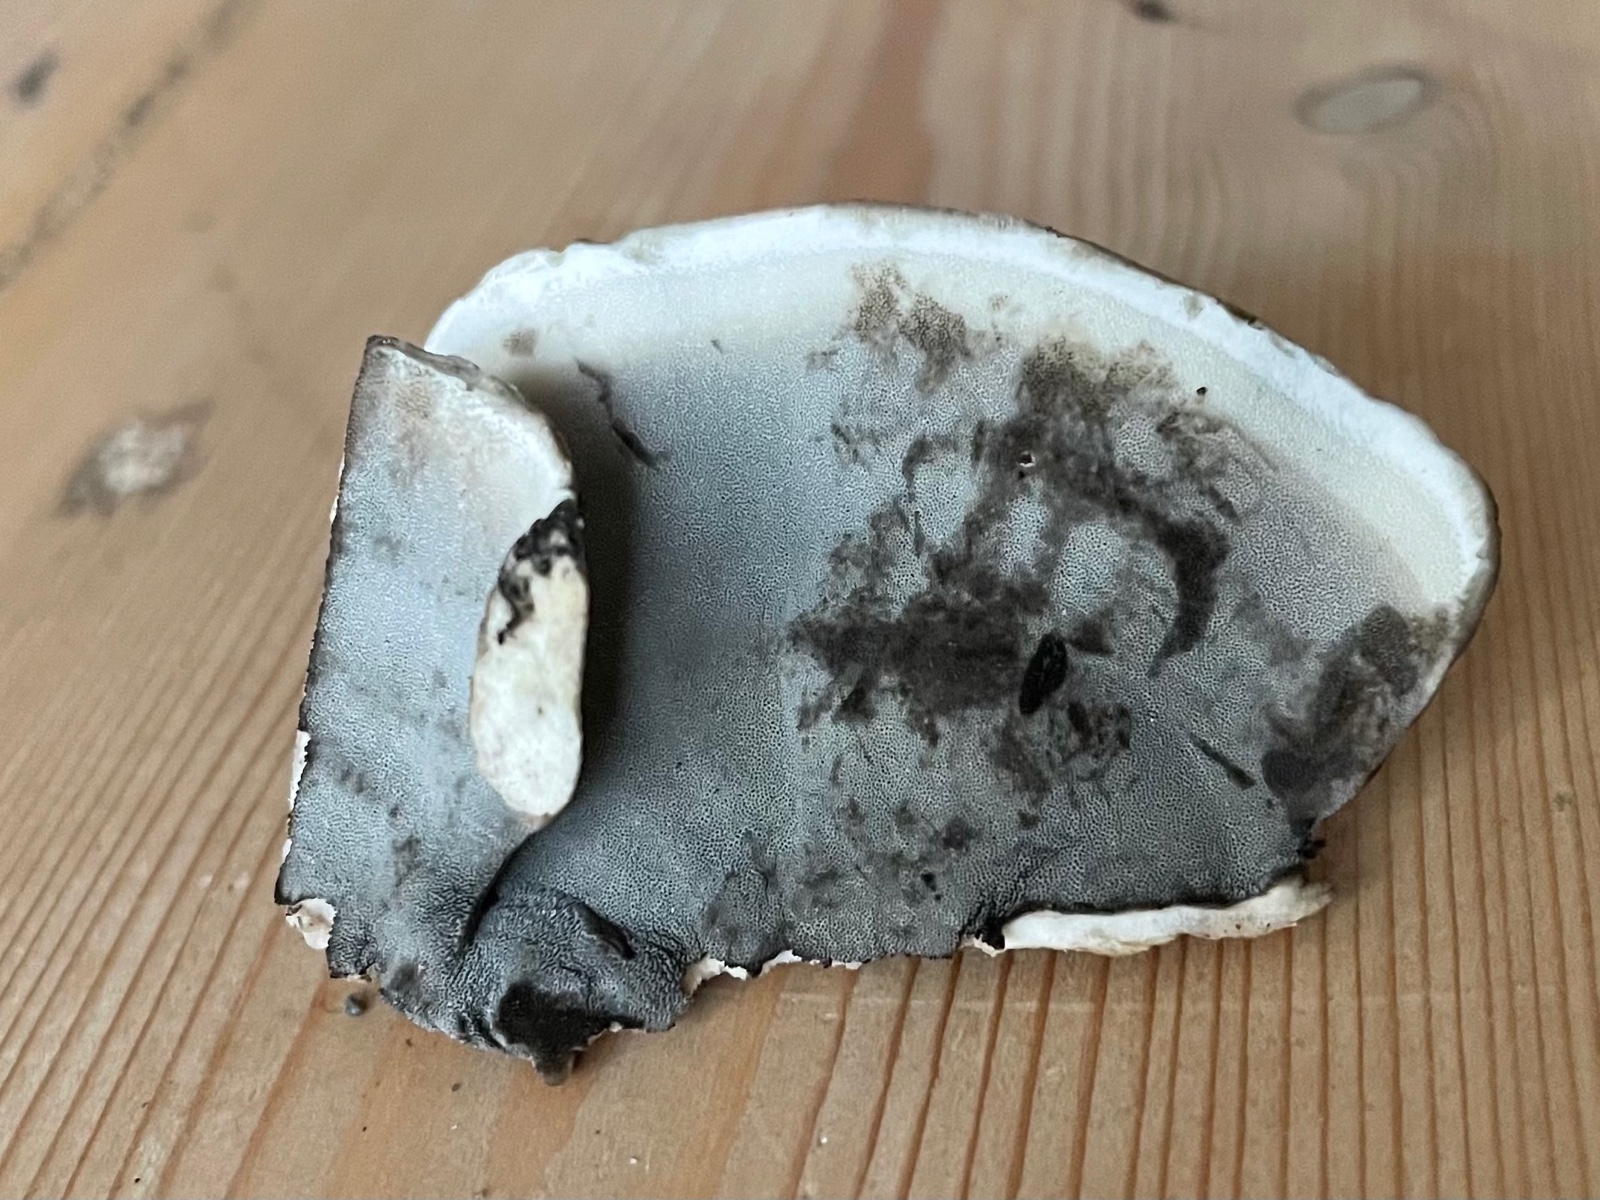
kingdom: Fungi
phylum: Basidiomycota
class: Agaricomycetes
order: Polyporales
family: Phanerochaetaceae
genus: Bjerkandera
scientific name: Bjerkandera adusta
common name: sveden sodporesvamp
